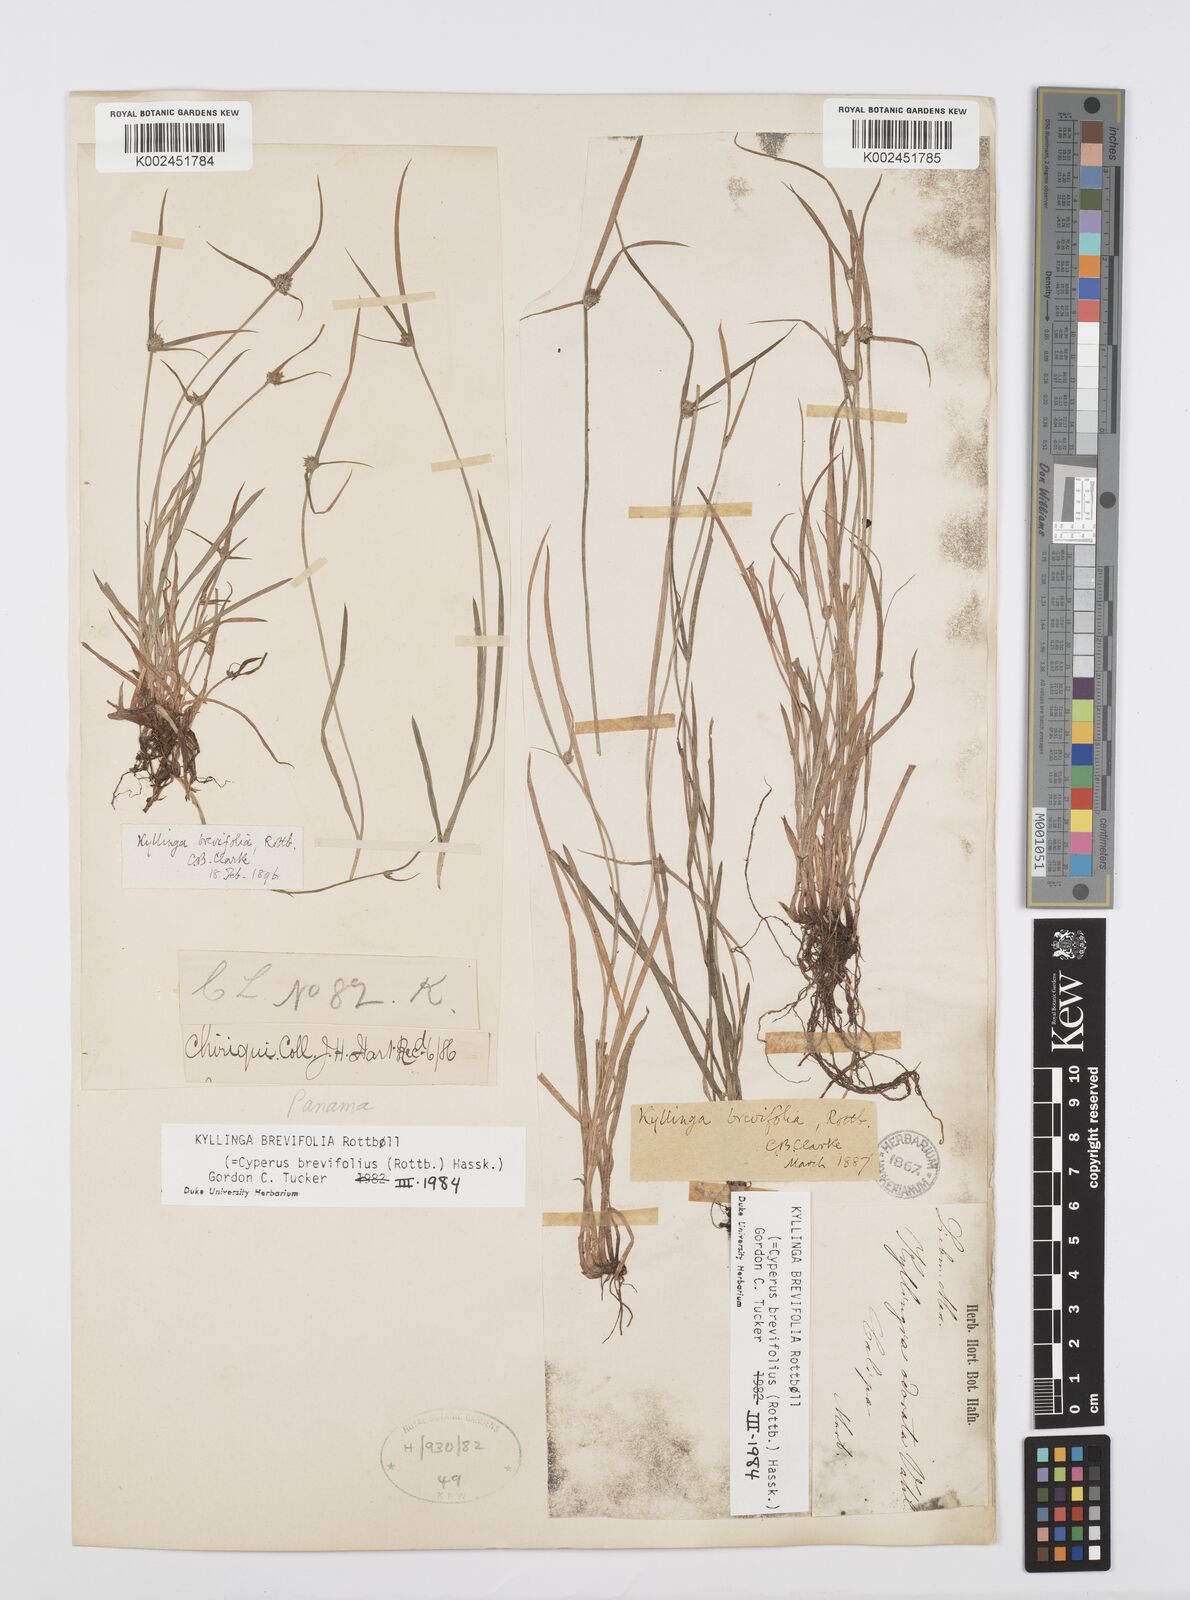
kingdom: Plantae
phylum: Tracheophyta
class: Liliopsida
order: Poales
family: Cyperaceae
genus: Cyperus
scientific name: Cyperus brevifolius
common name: Globe kyllinga
